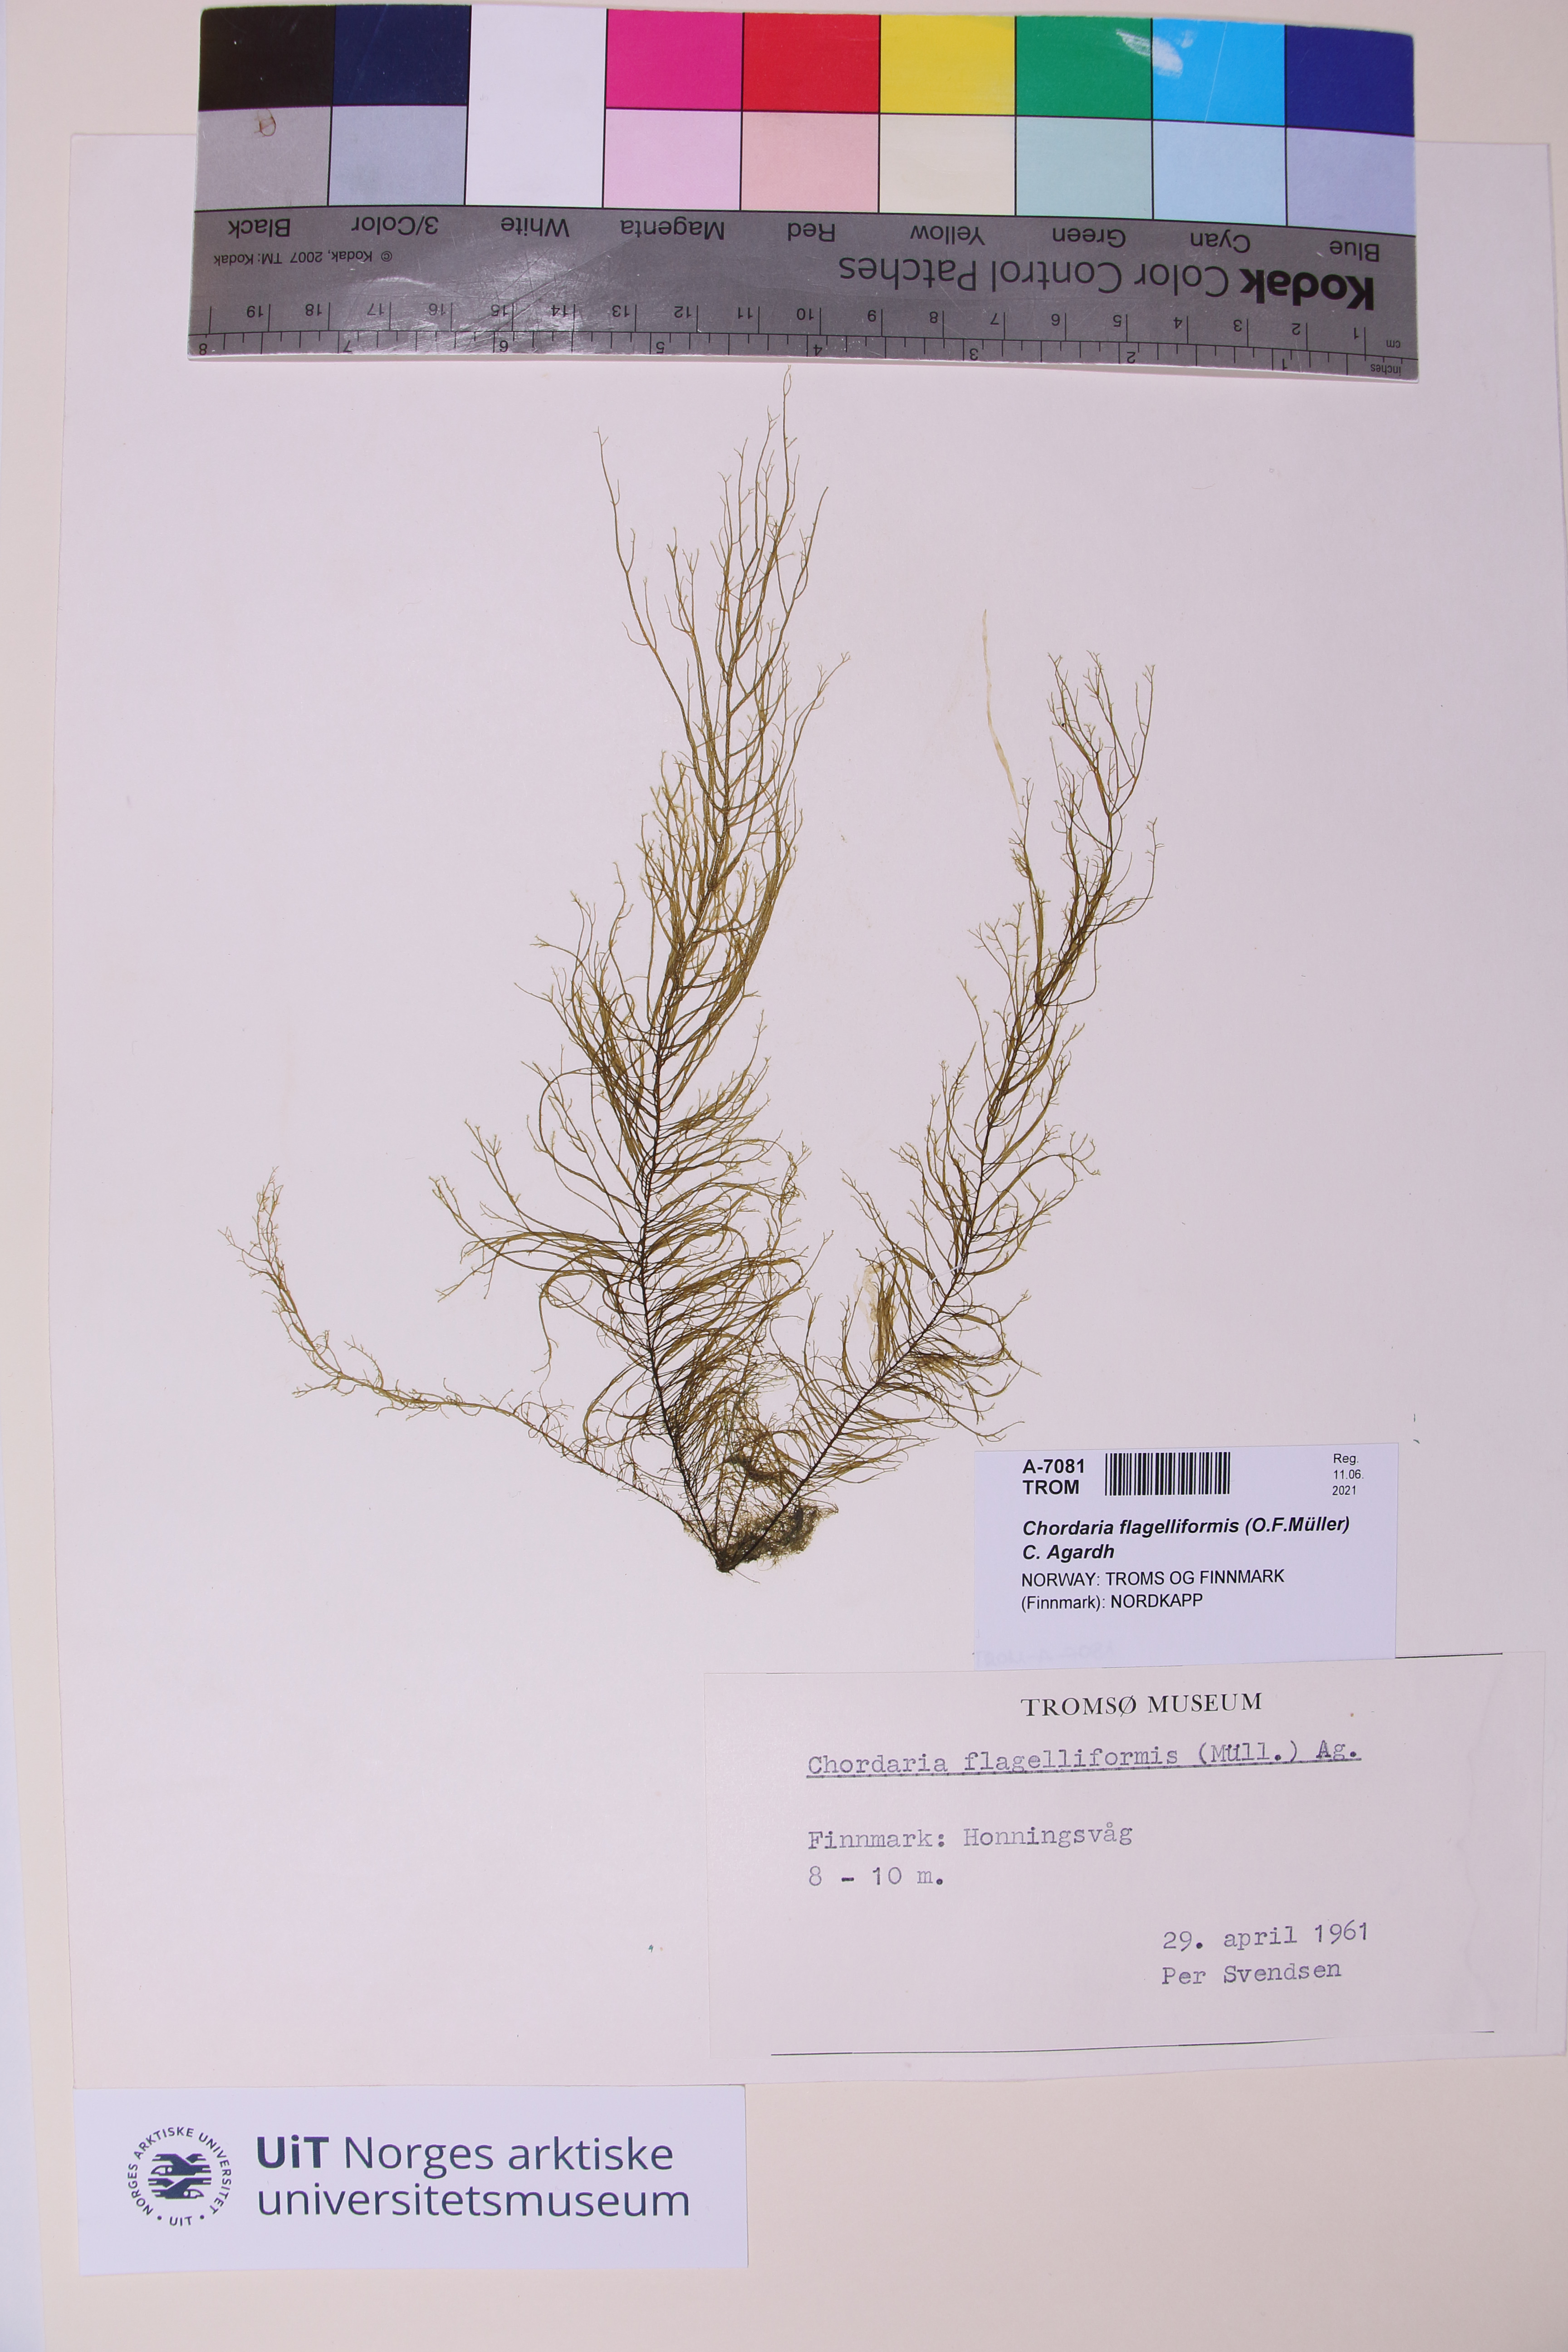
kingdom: Chromista
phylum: Ochrophyta
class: Phaeophyceae
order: Ectocarpales
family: Chordariaceae
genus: Chordaria
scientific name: Chordaria flagelliformis
